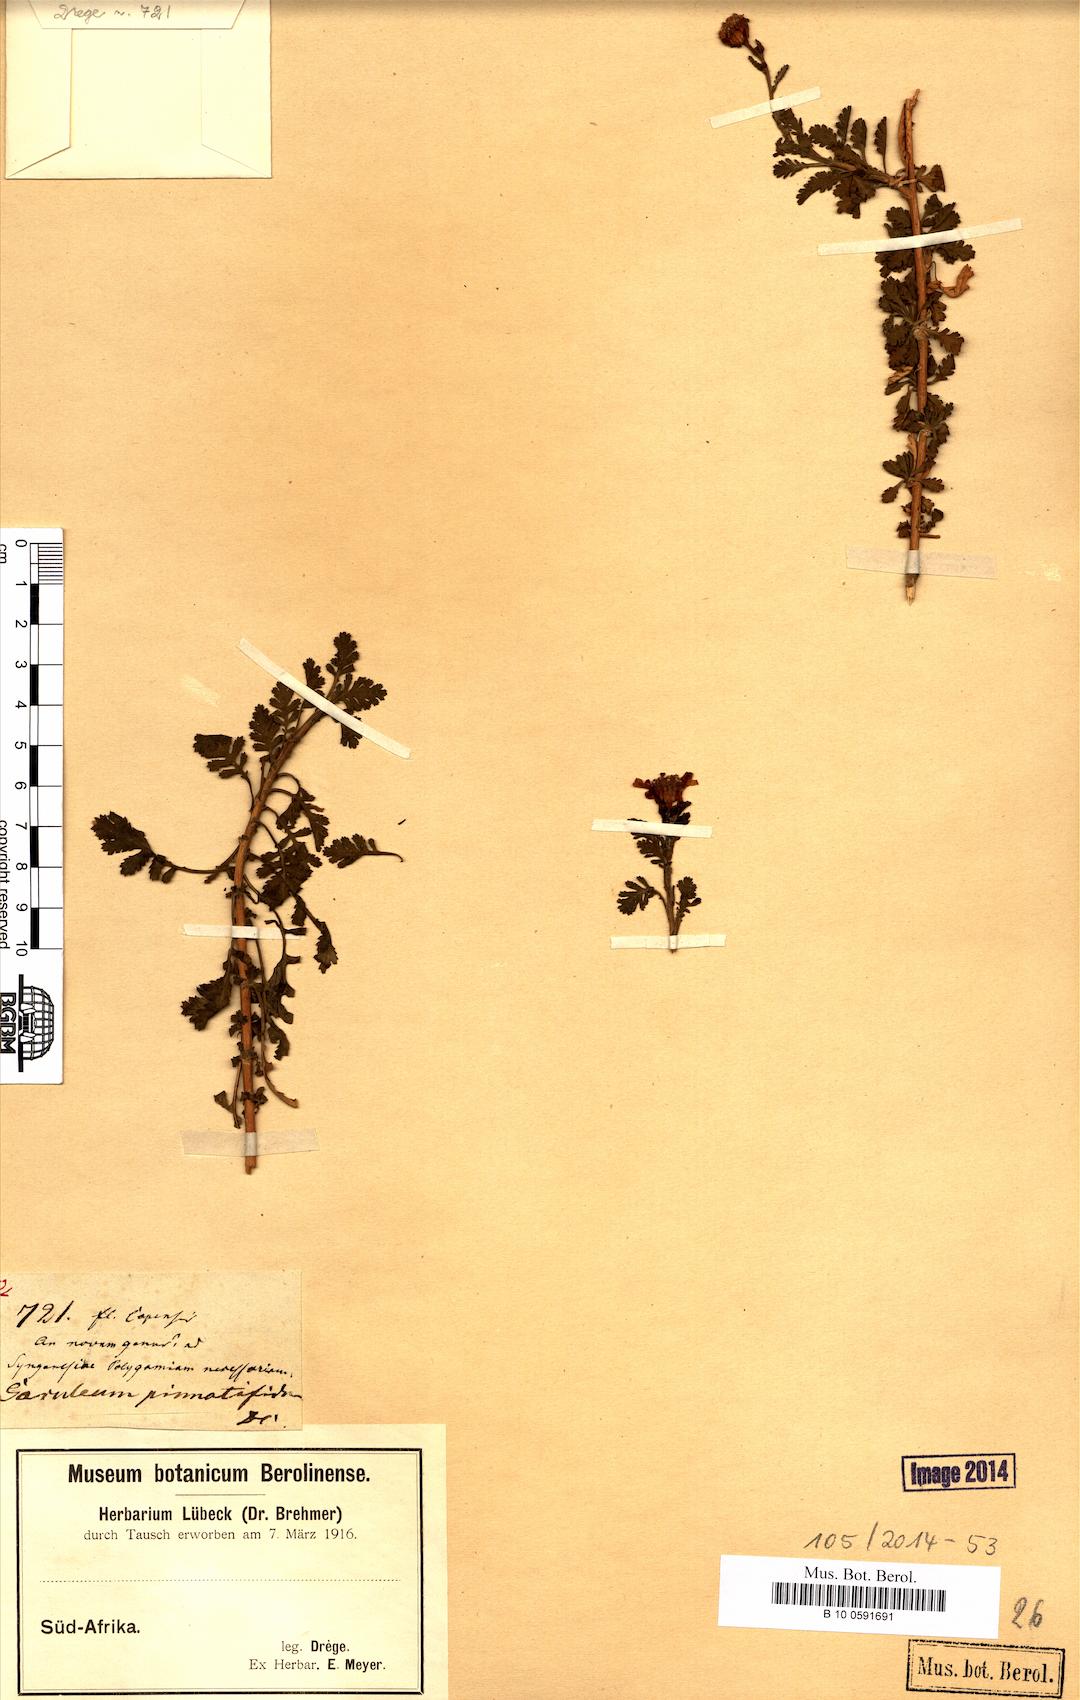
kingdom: Plantae
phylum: Tracheophyta
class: Magnoliopsida
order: Asterales
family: Asteraceae
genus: Garuleum
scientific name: Garuleum pinnatifidum
